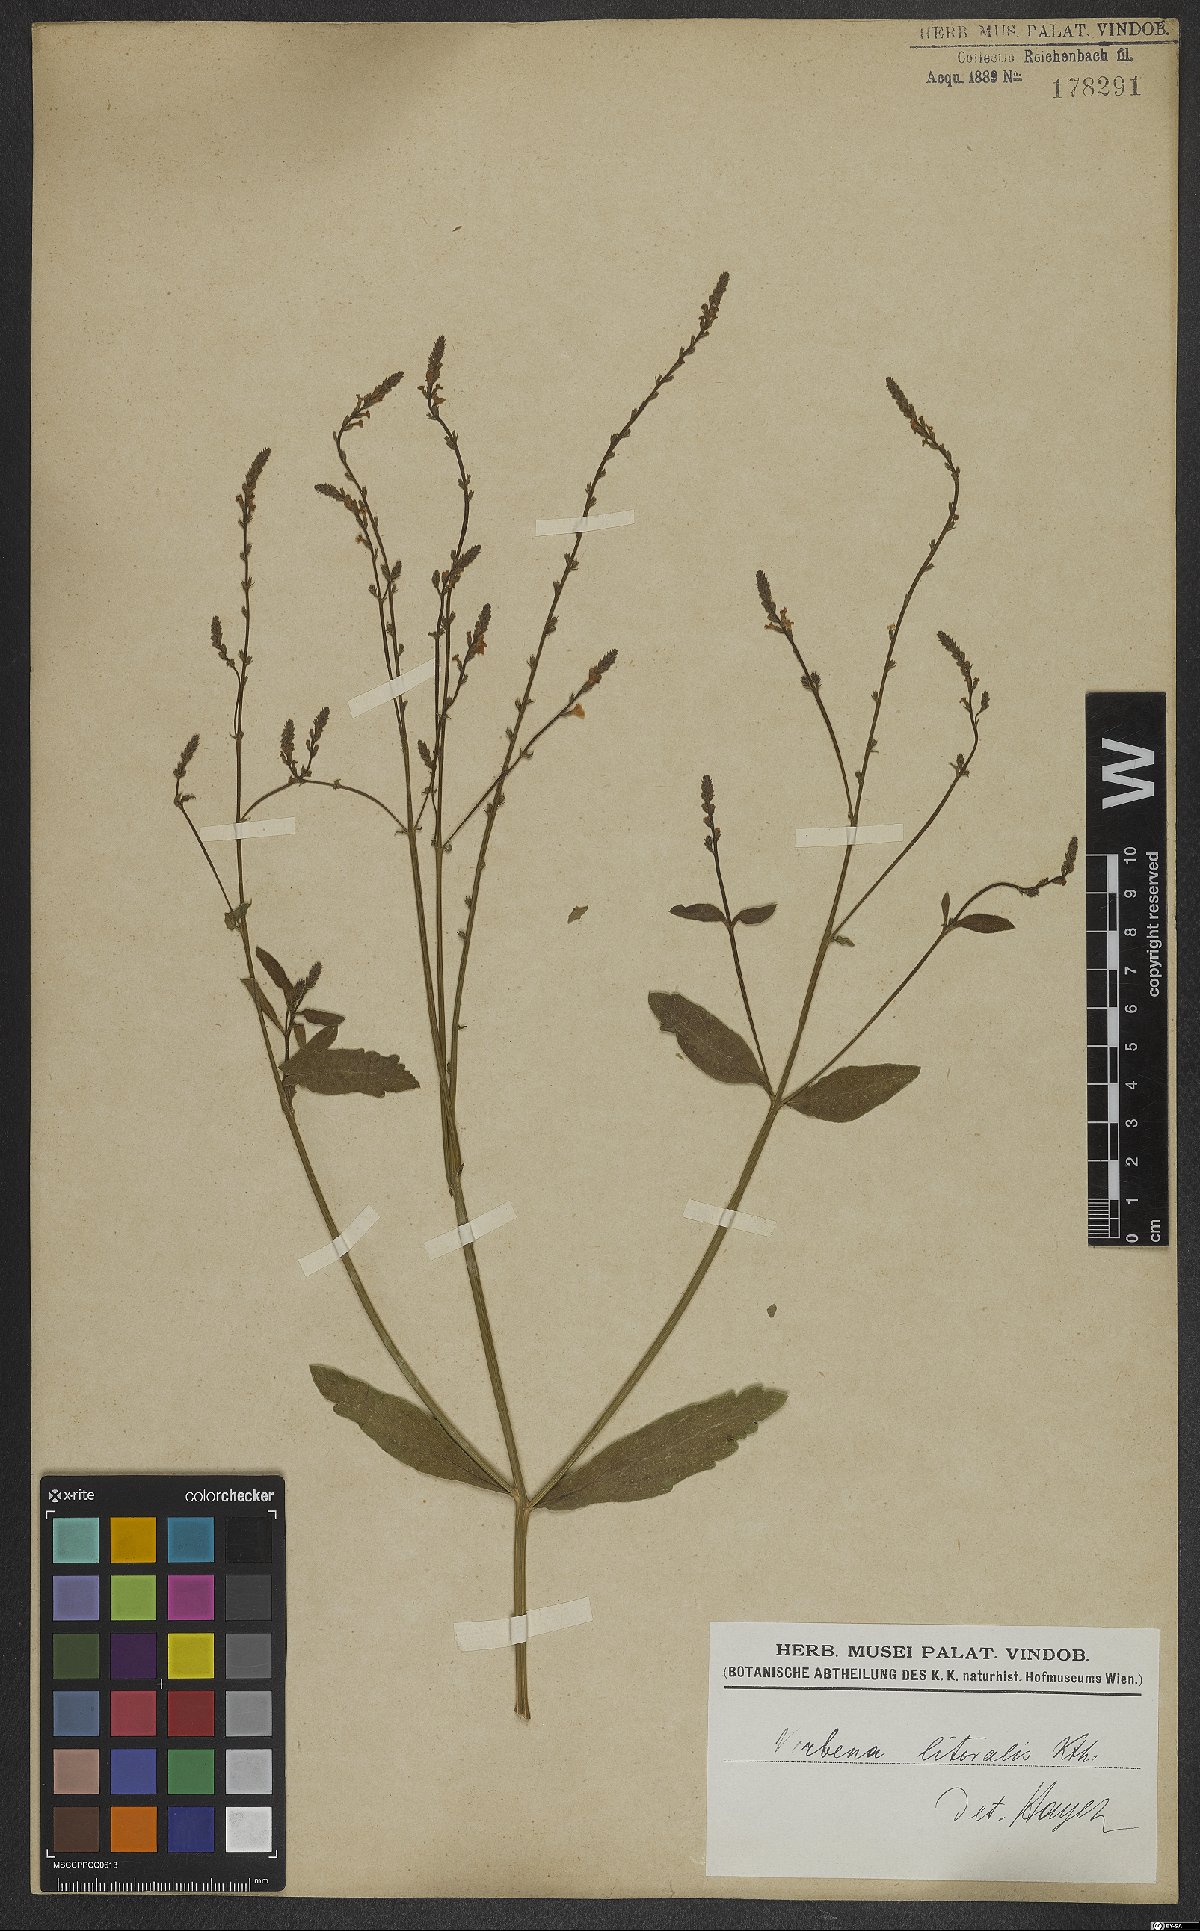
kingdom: Plantae
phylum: Tracheophyta
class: Magnoliopsida
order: Lamiales
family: Verbenaceae
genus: Verbena
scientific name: Verbena litoralis
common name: Seashore vervain
